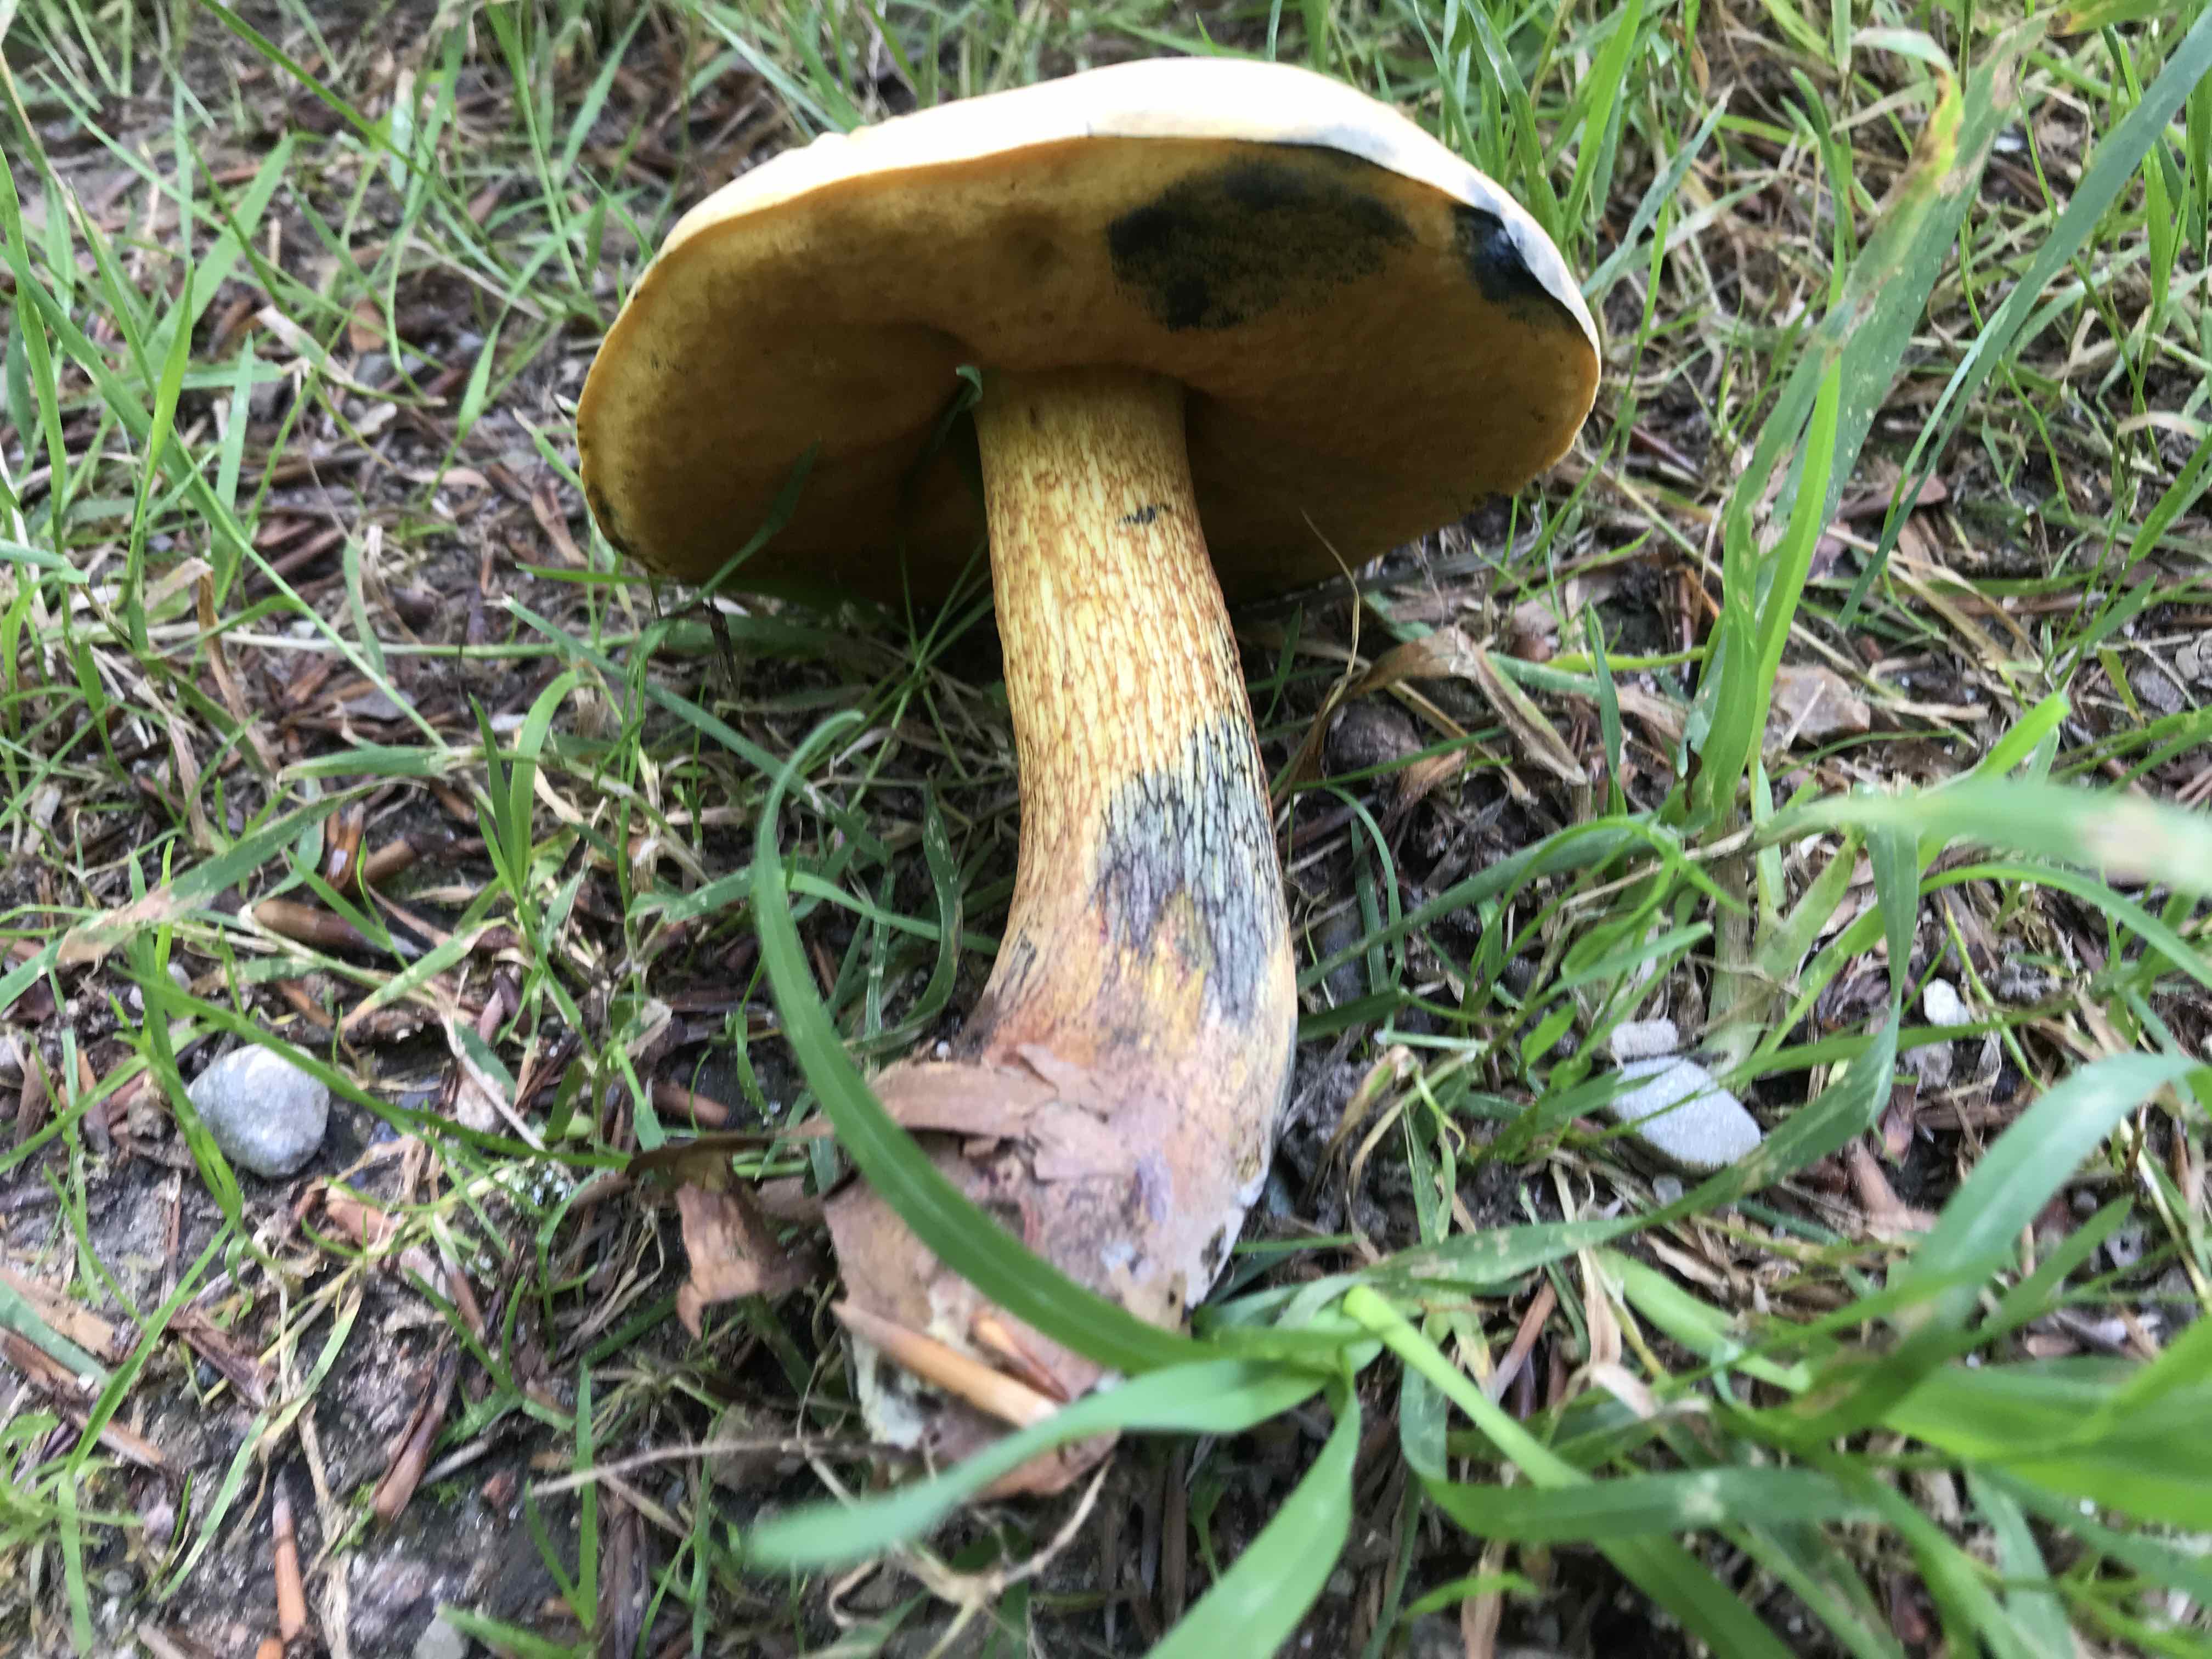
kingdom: Fungi
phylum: Basidiomycota
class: Agaricomycetes
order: Boletales
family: Boletaceae
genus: Suillellus
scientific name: Suillellus luridus
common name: netstokket indigorørhat
